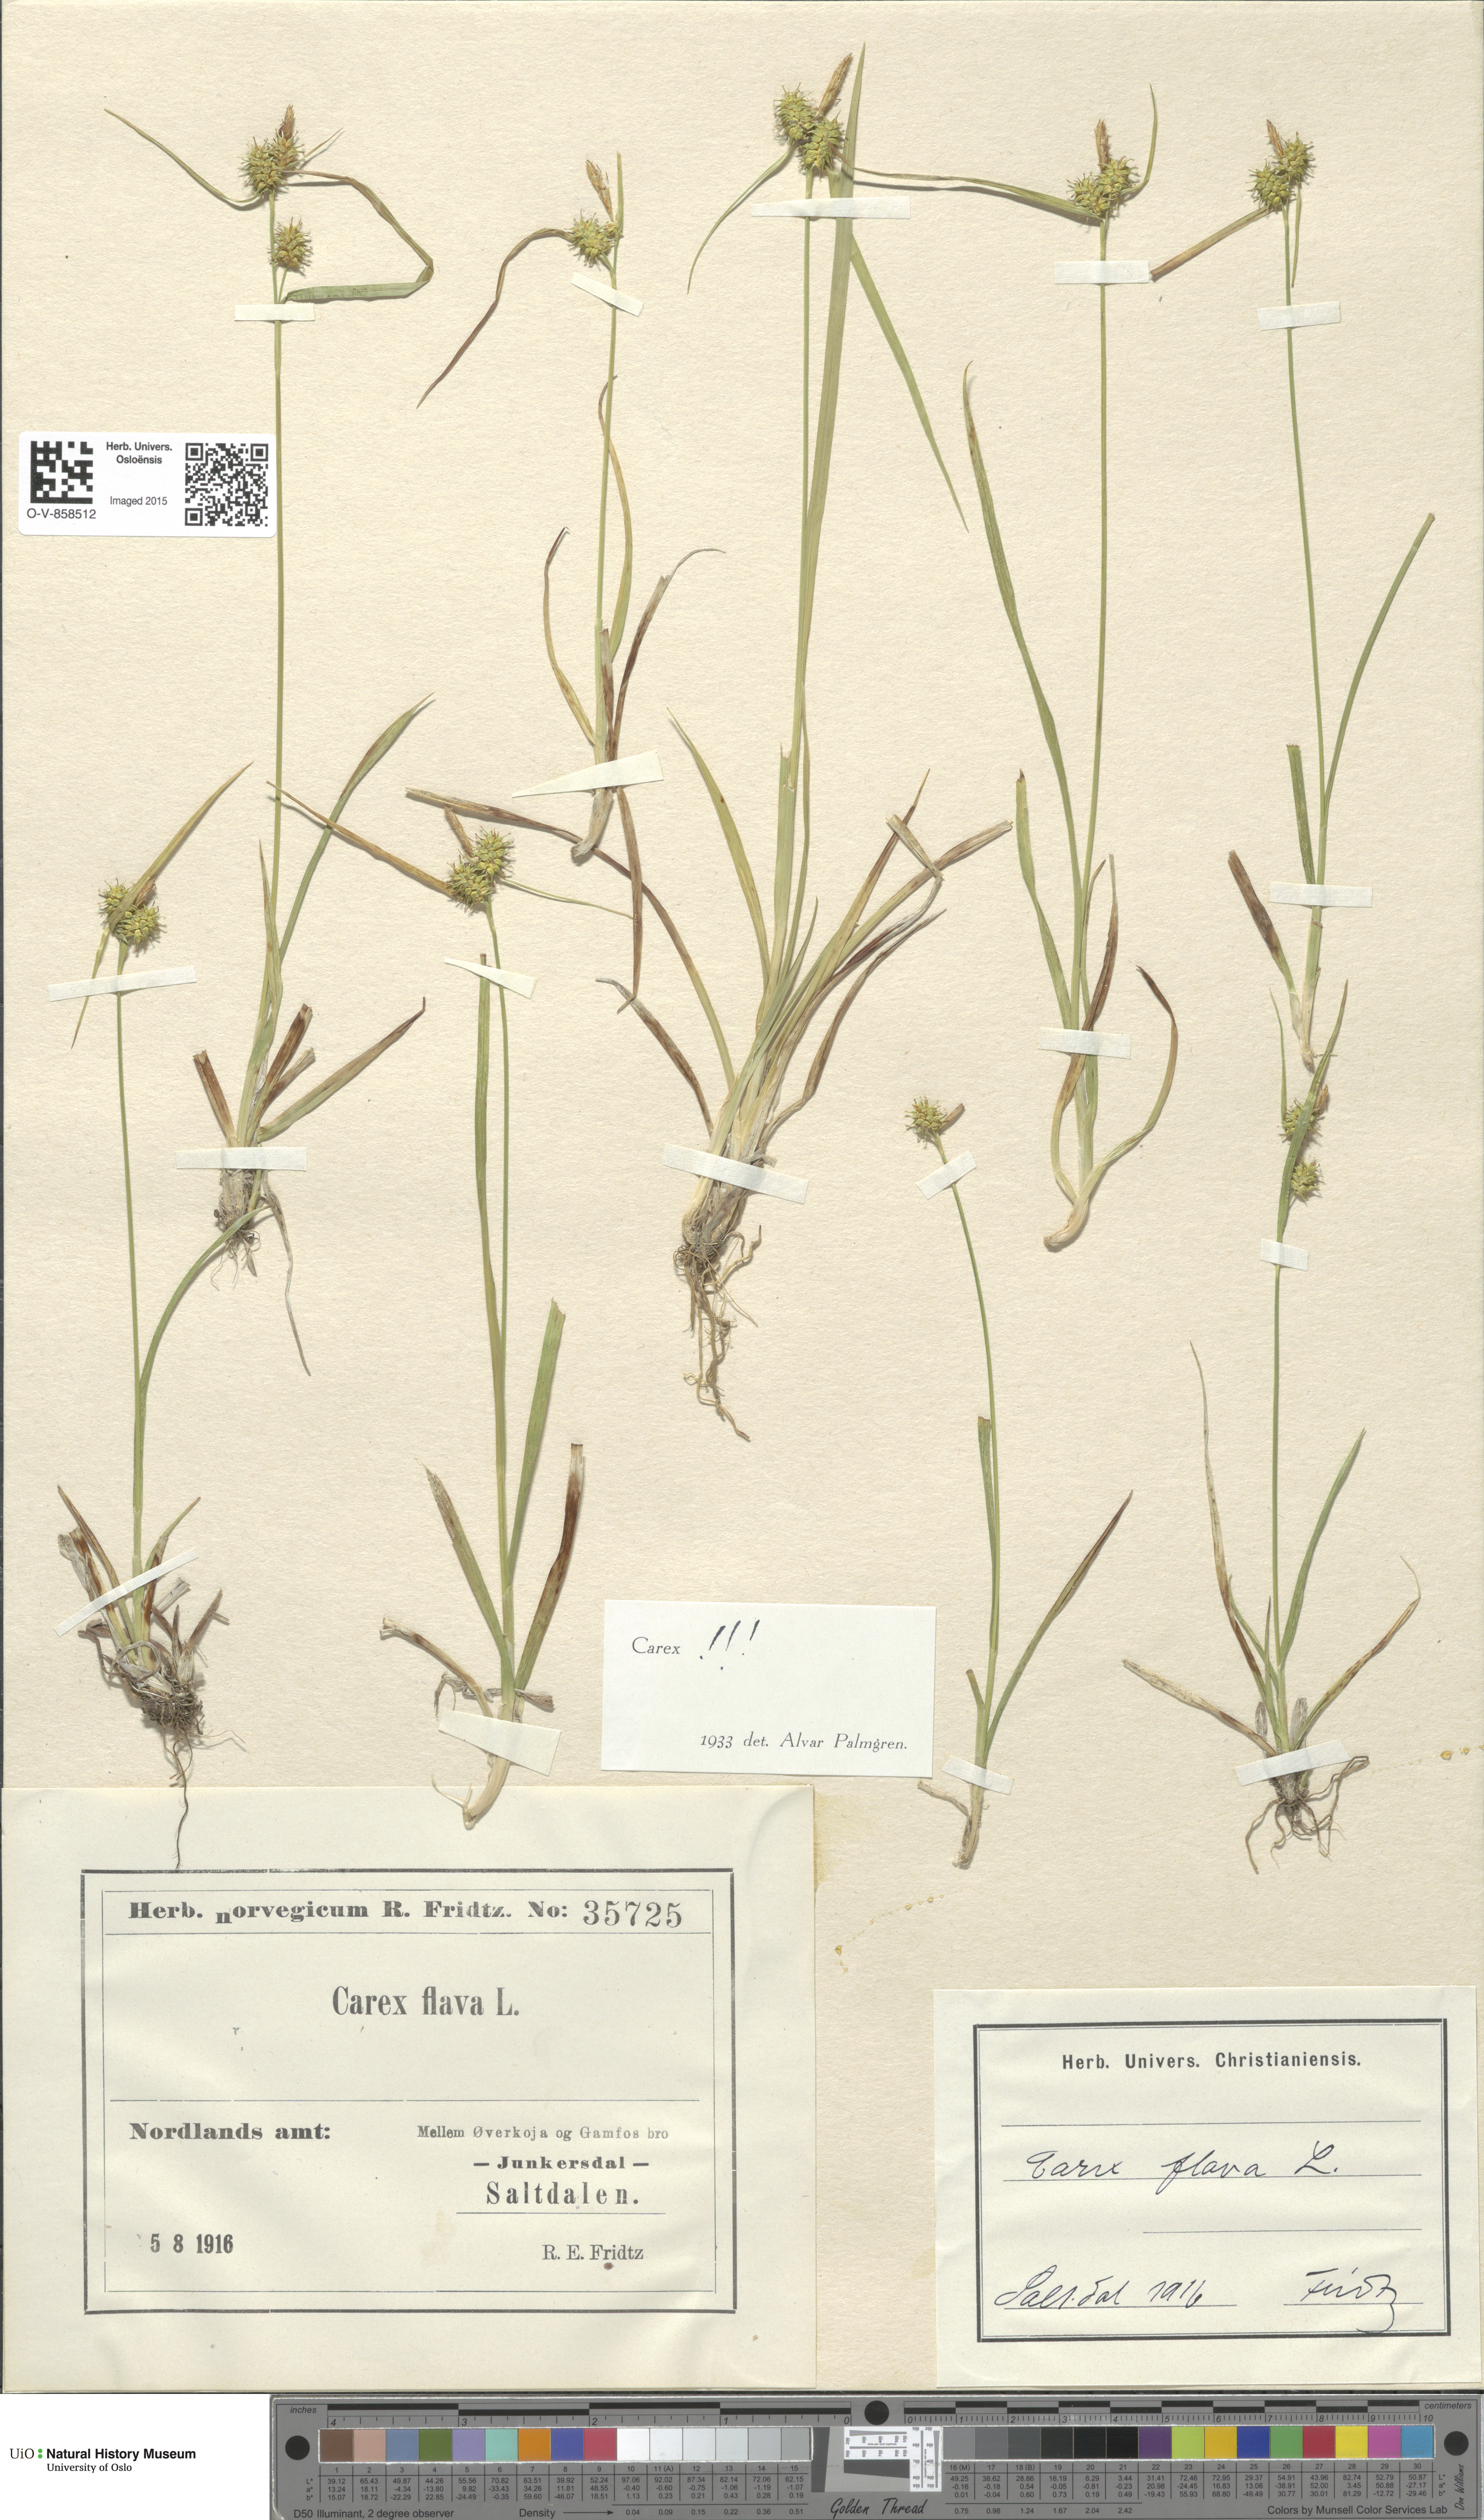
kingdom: Plantae
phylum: Tracheophyta
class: Liliopsida
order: Poales
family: Cyperaceae
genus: Carex
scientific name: Carex flava
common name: Large yellow-sedge
